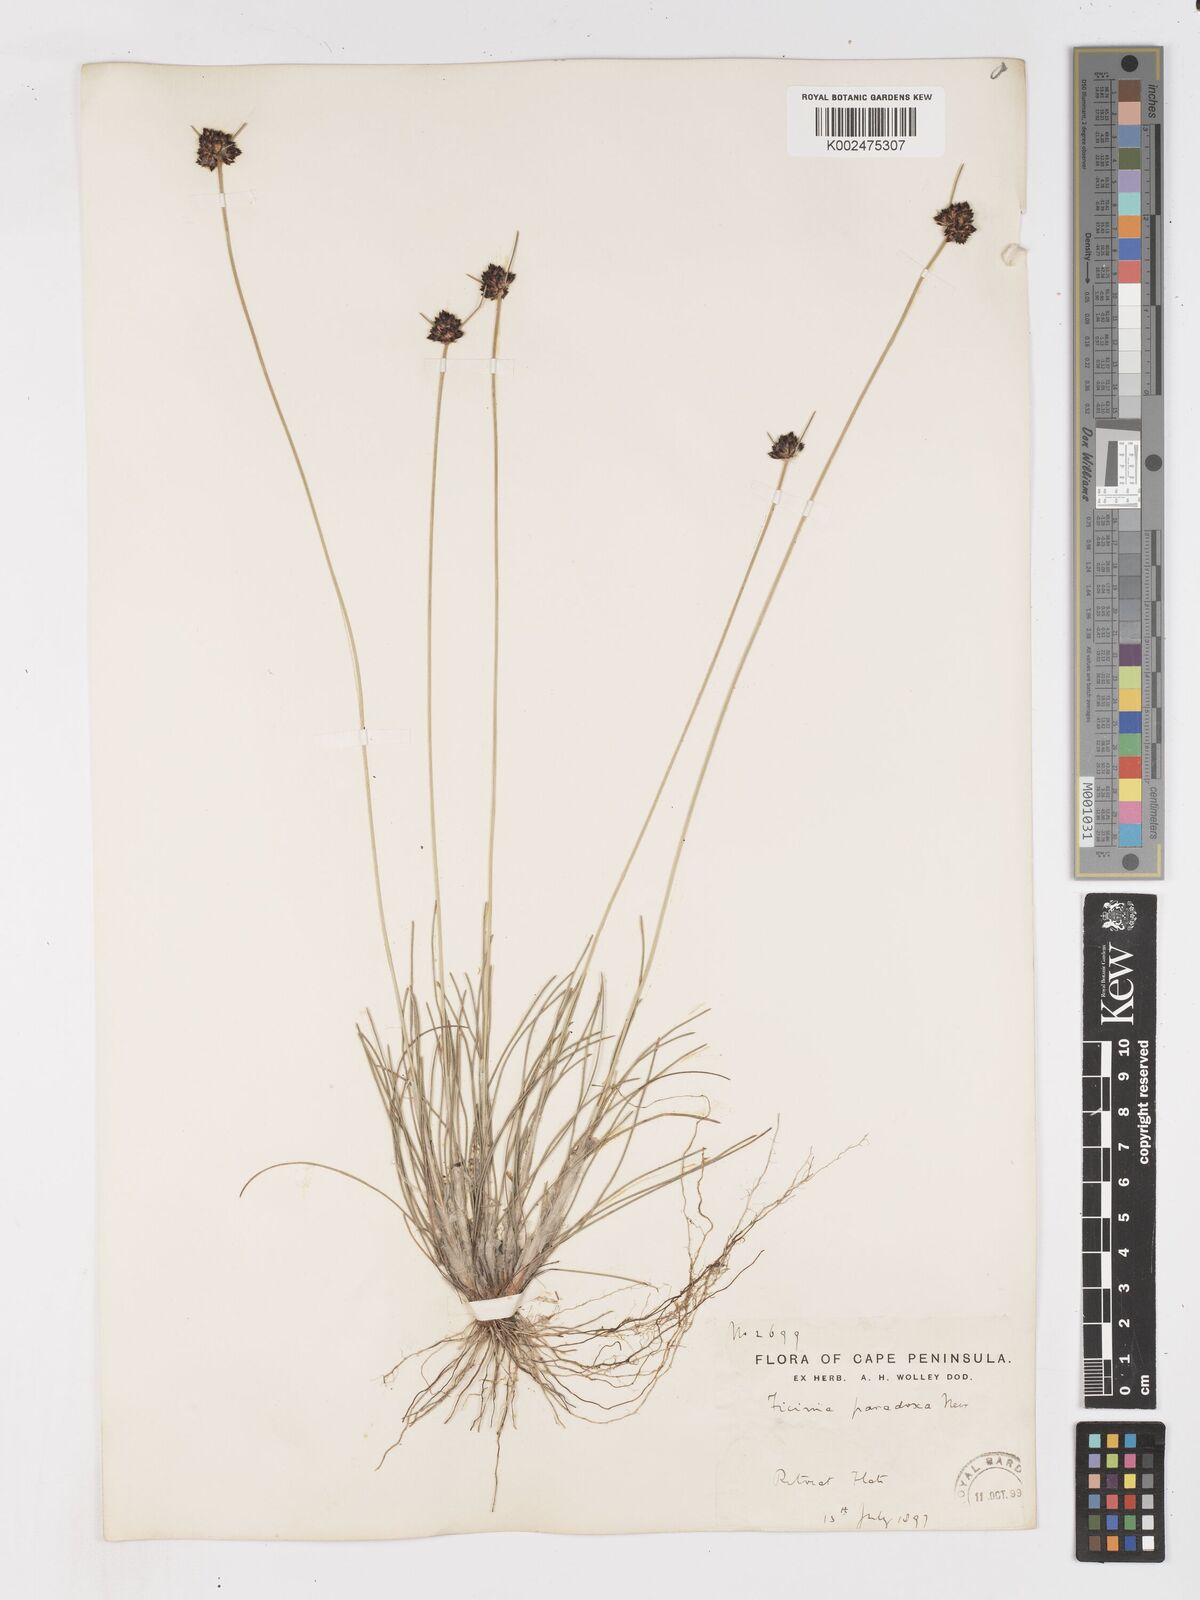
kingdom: Plantae
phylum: Tracheophyta
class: Liliopsida
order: Poales
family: Cyperaceae
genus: Ficinia
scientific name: Ficinia paradoxa
